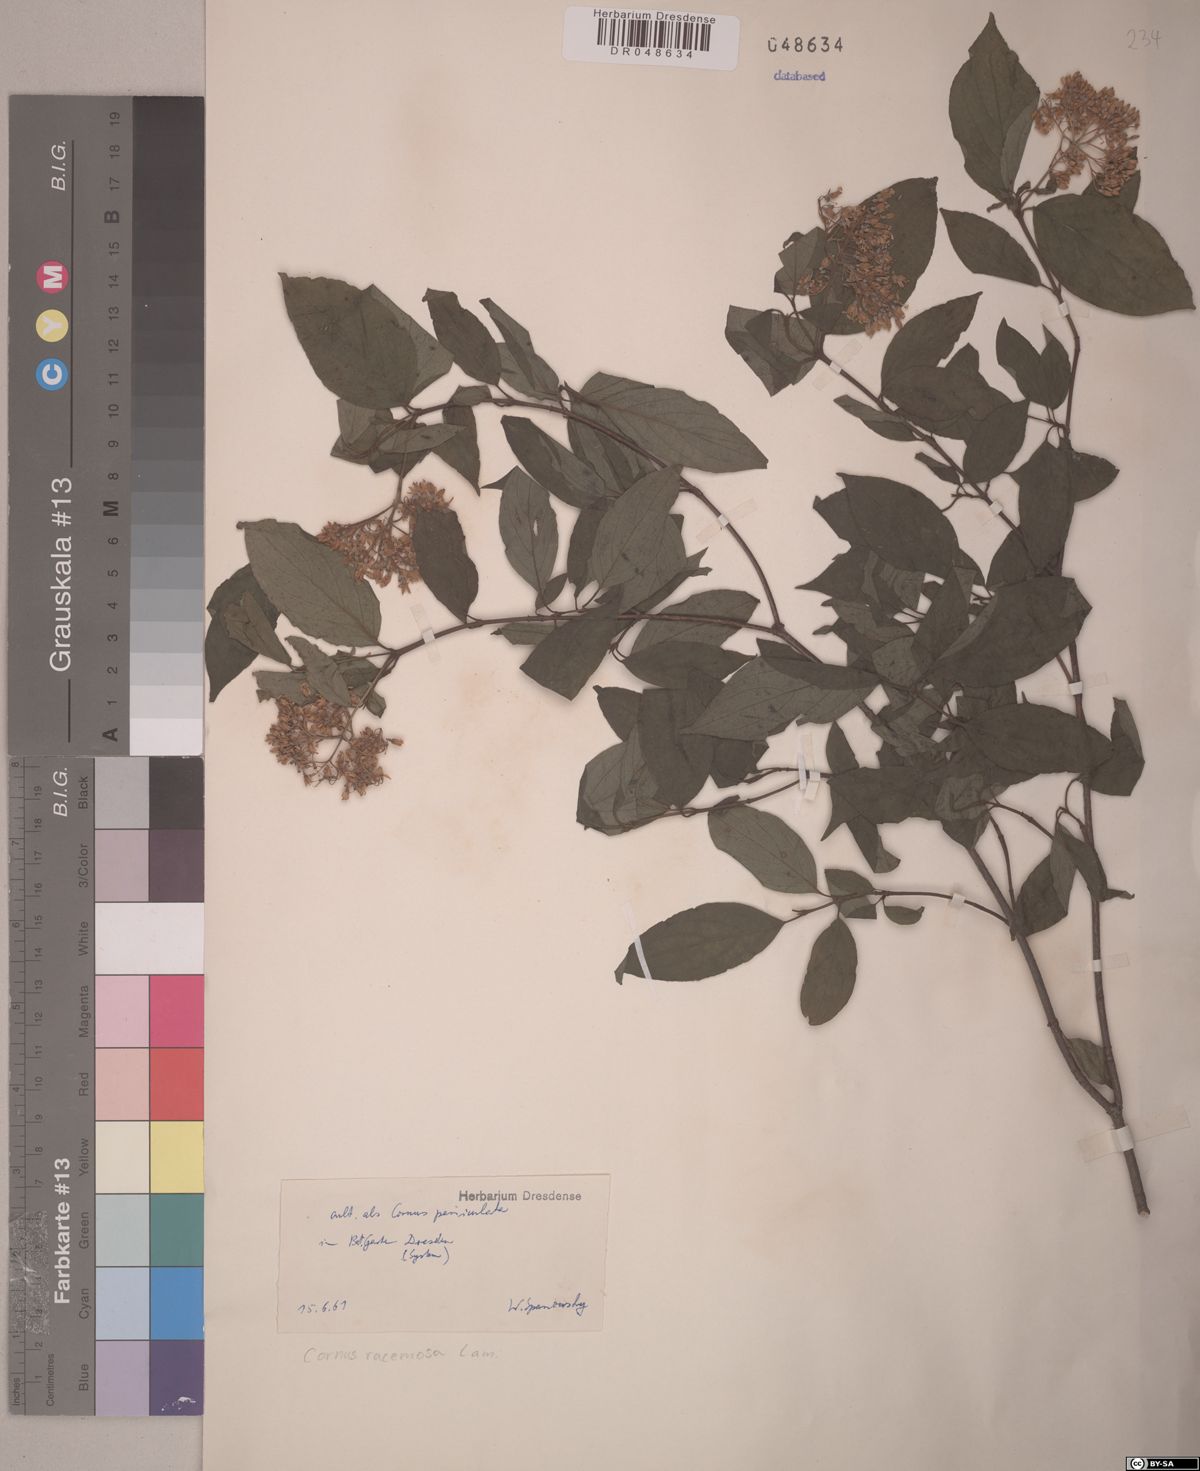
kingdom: Plantae
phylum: Tracheophyta
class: Magnoliopsida
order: Cornales
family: Cornaceae
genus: Cornus
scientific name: Cornus racemosa
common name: Panicled dogwood
